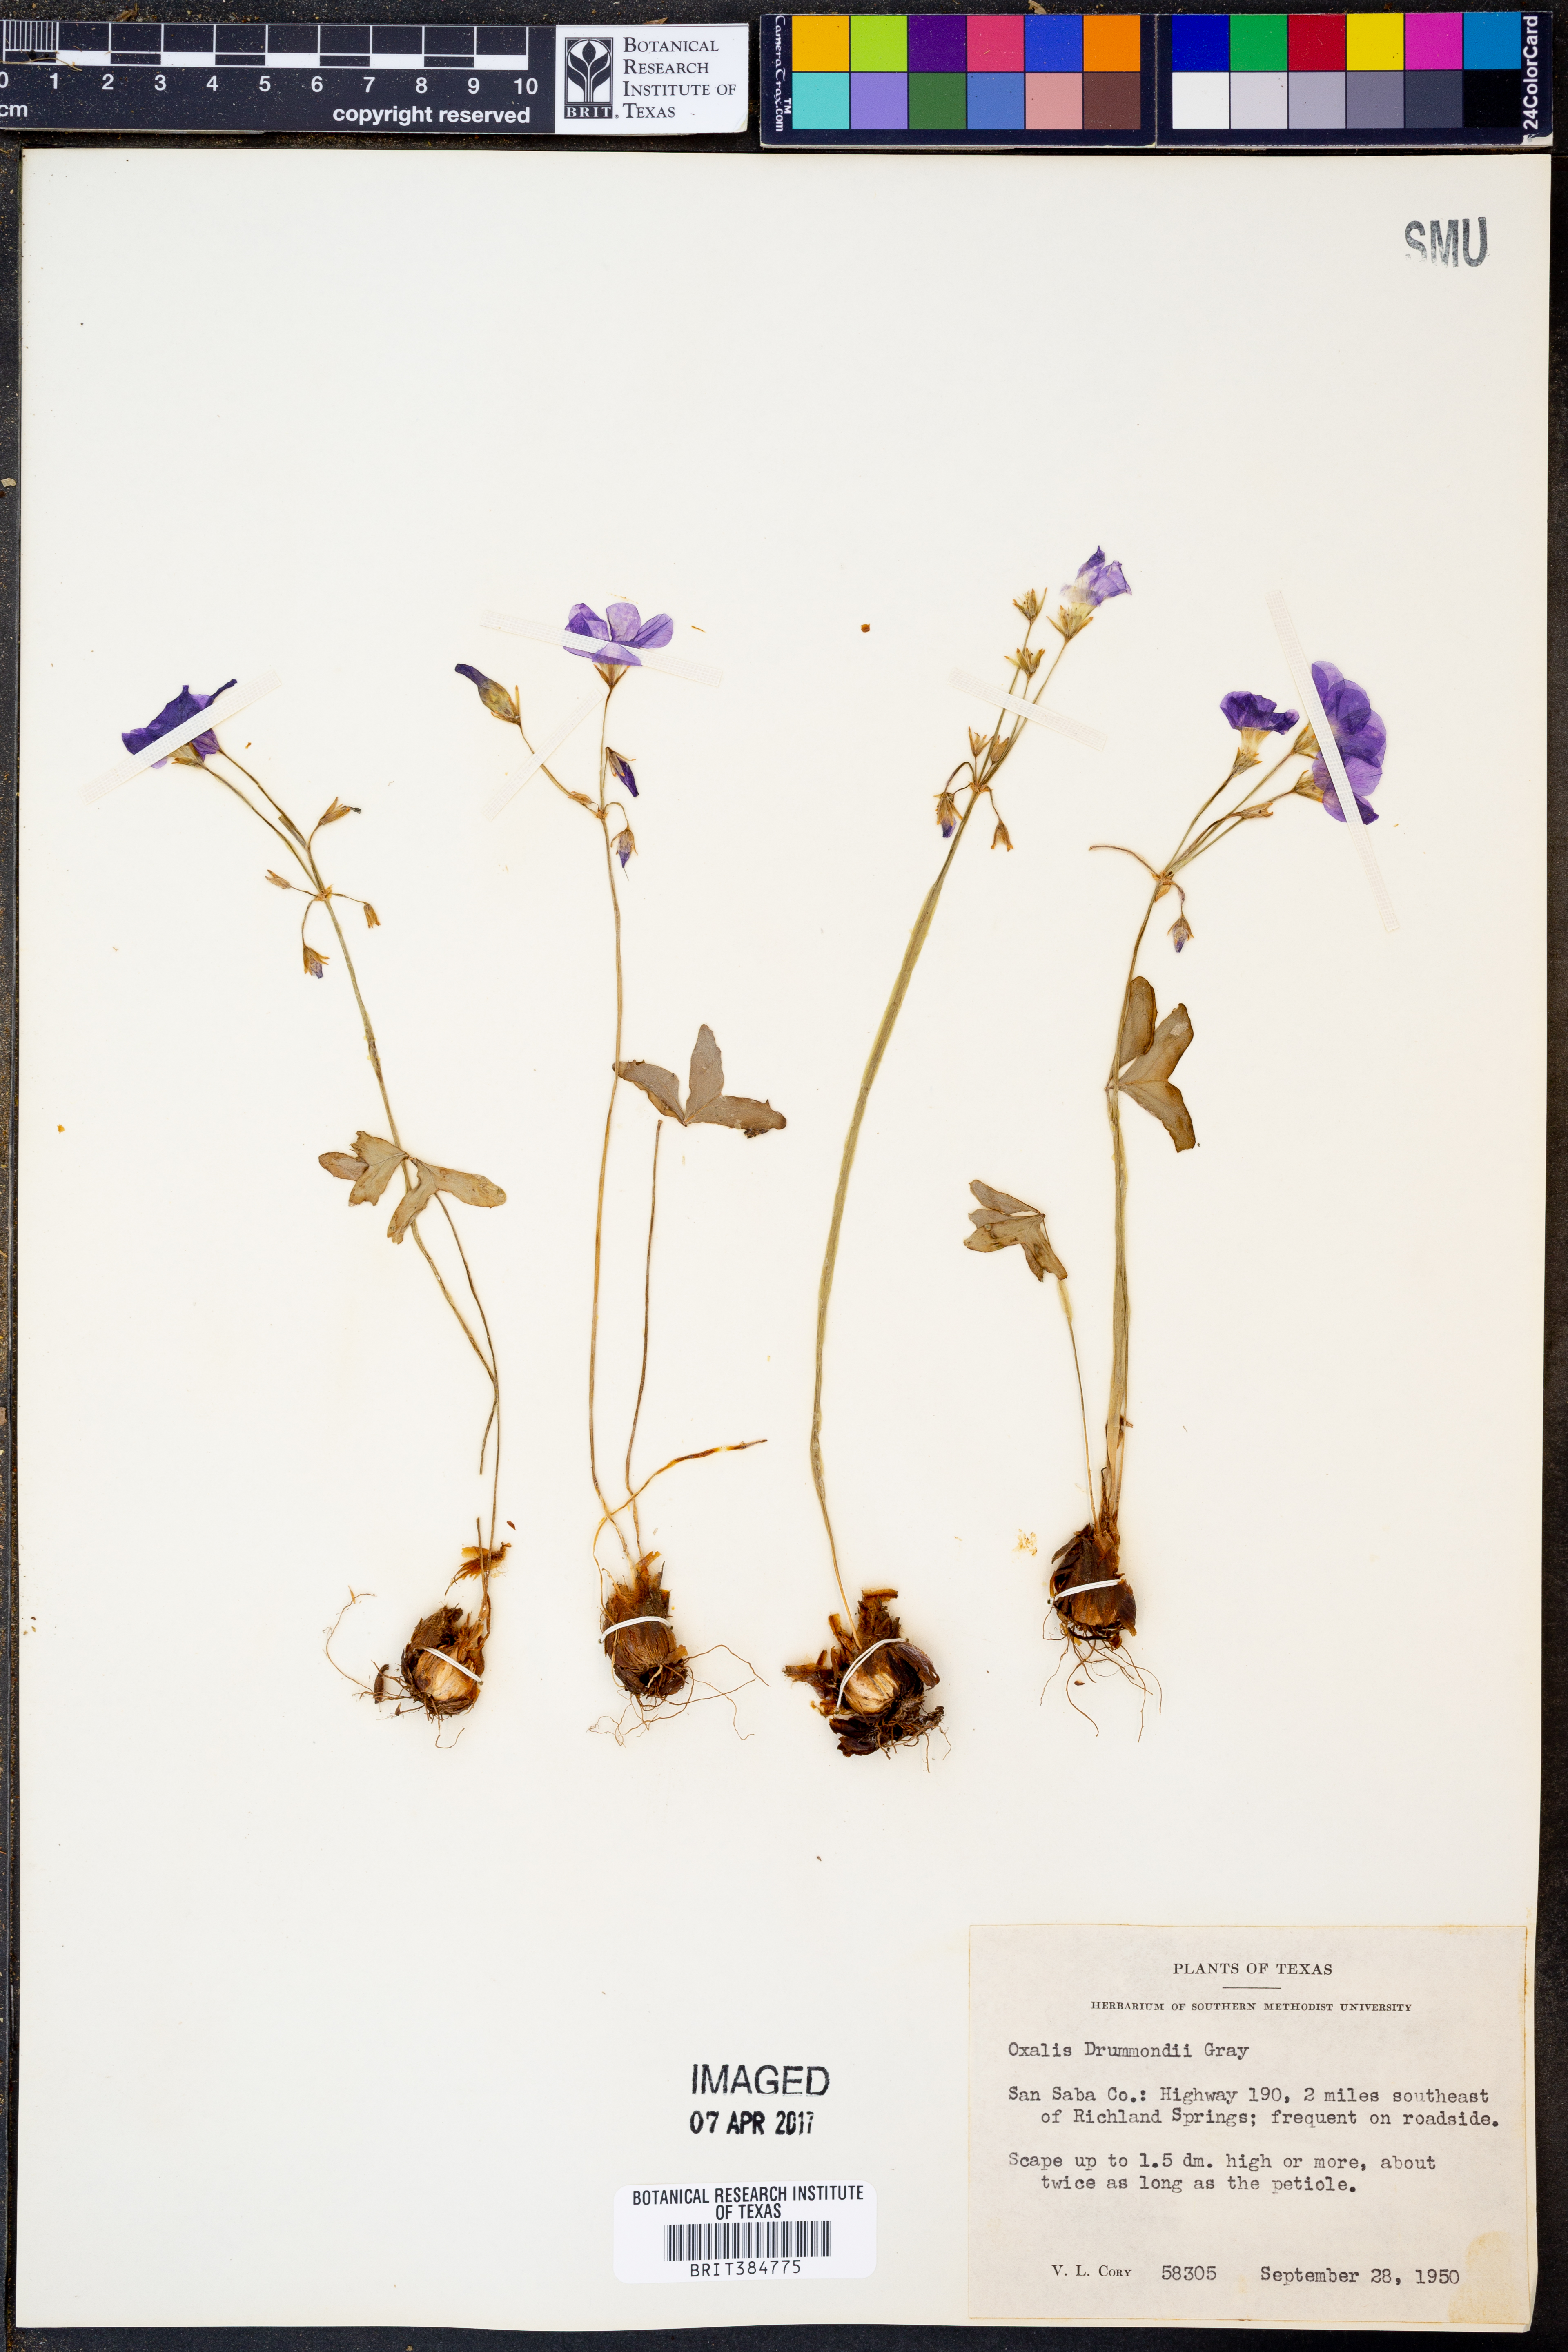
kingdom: Plantae
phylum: Tracheophyta
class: Magnoliopsida
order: Oxalidales
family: Oxalidaceae
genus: Oxalis
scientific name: Oxalis drummondii
